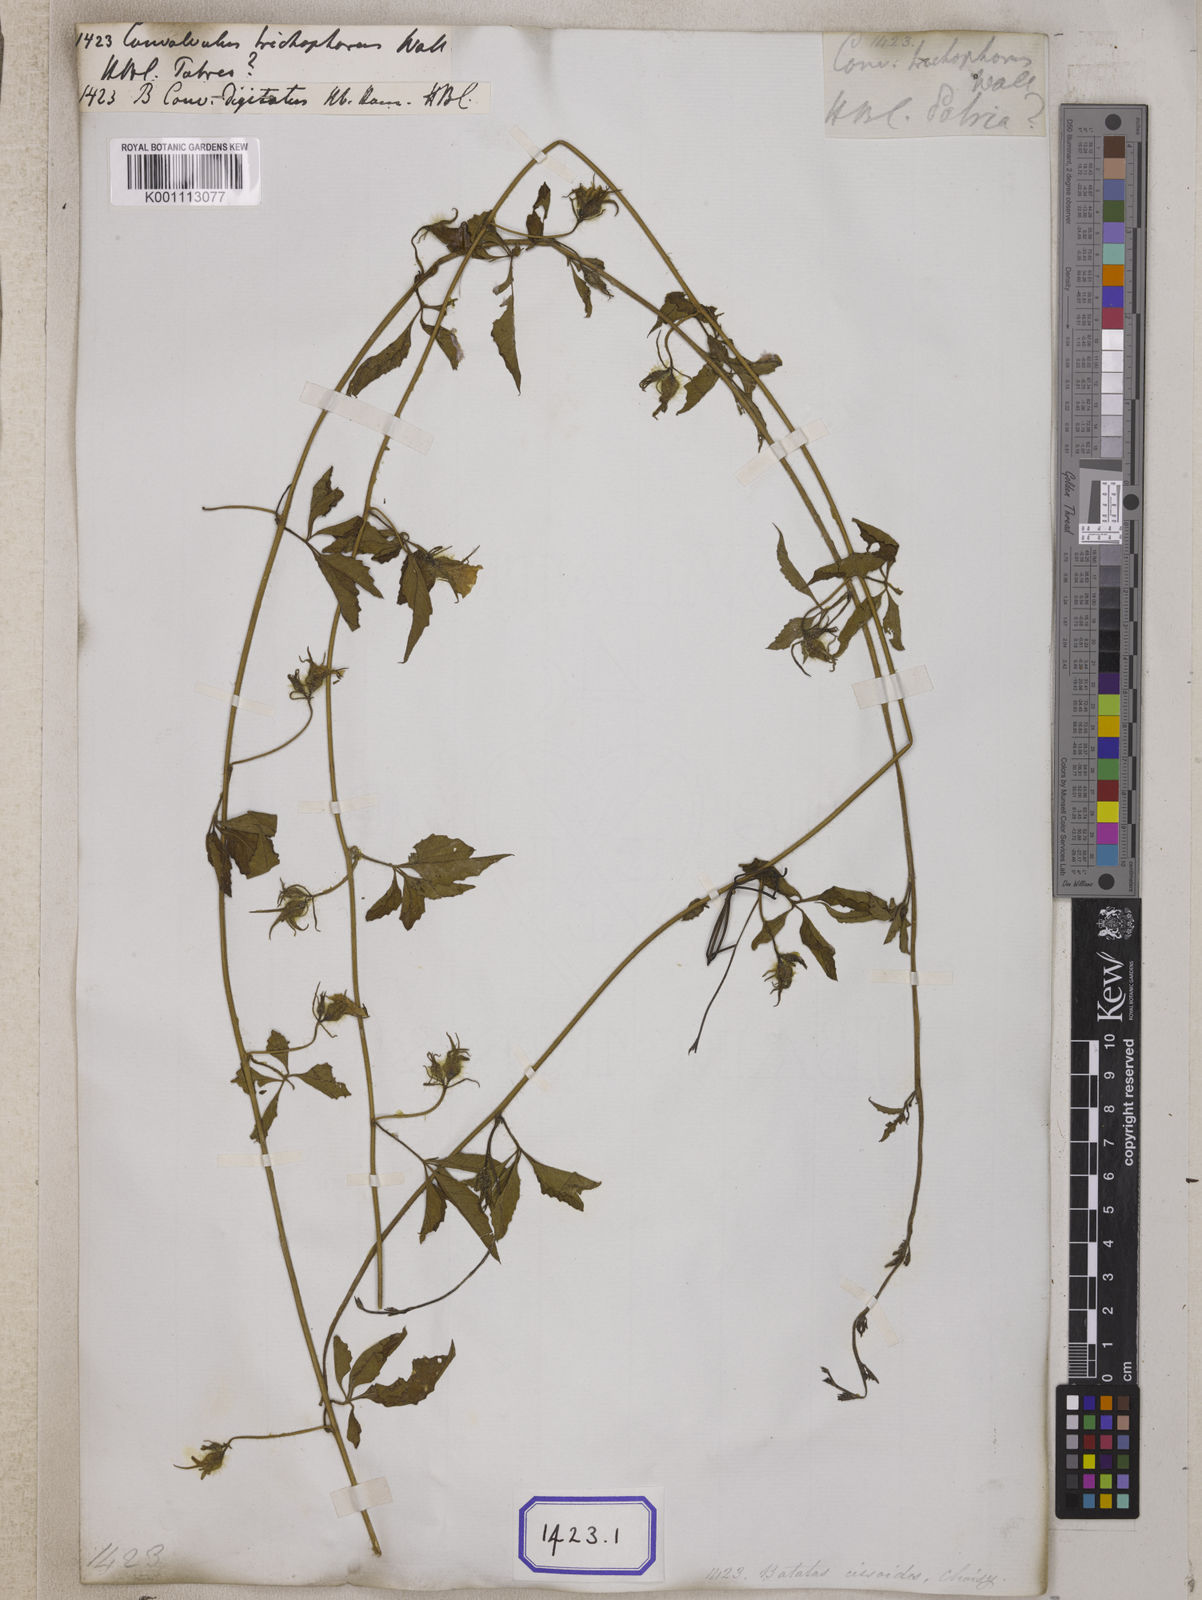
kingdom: Plantae
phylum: Tracheophyta
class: Magnoliopsida
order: Solanales
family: Convolvulaceae
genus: Convolvulus
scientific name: Convolvulus
